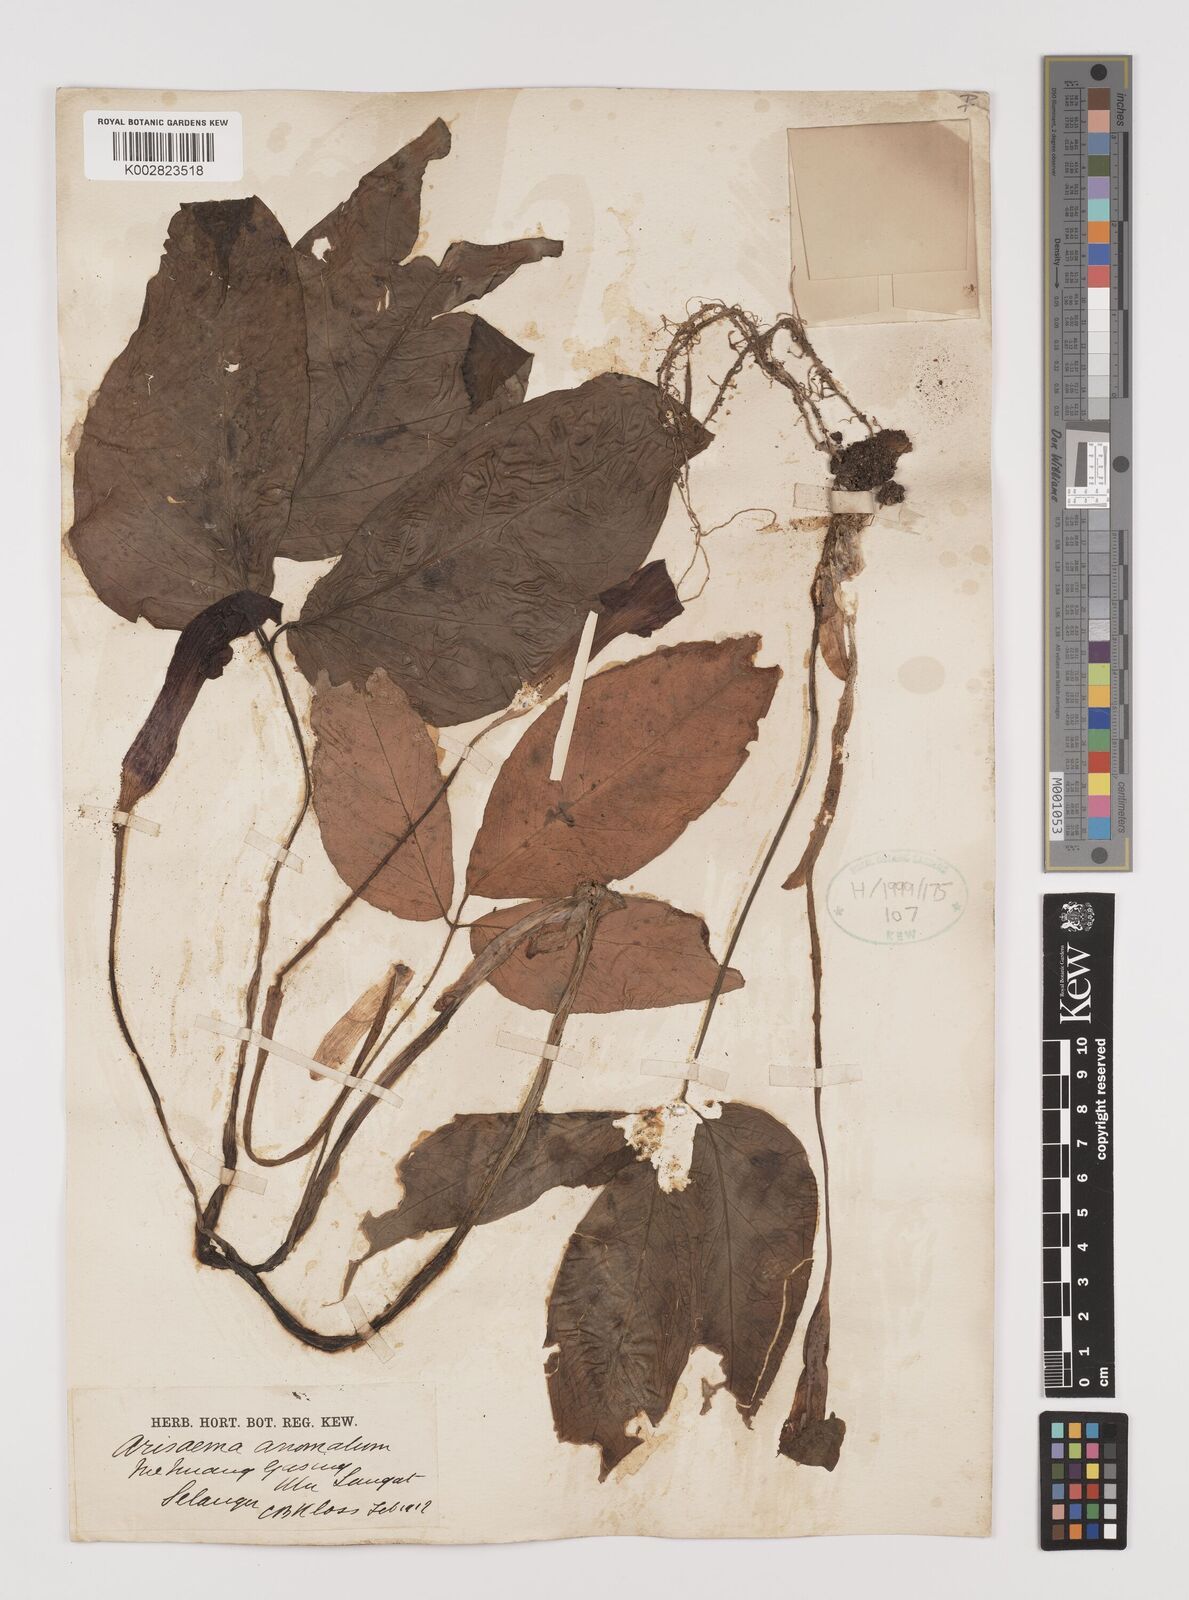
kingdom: Plantae
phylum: Tracheophyta
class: Liliopsida
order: Alismatales
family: Araceae
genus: Arisaema
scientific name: Arisaema anomalum
